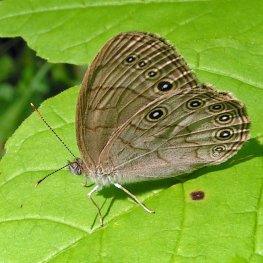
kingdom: Animalia
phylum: Arthropoda
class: Insecta
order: Lepidoptera
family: Nymphalidae
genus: Lethe
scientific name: Lethe eurydice
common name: Eyed Brown
